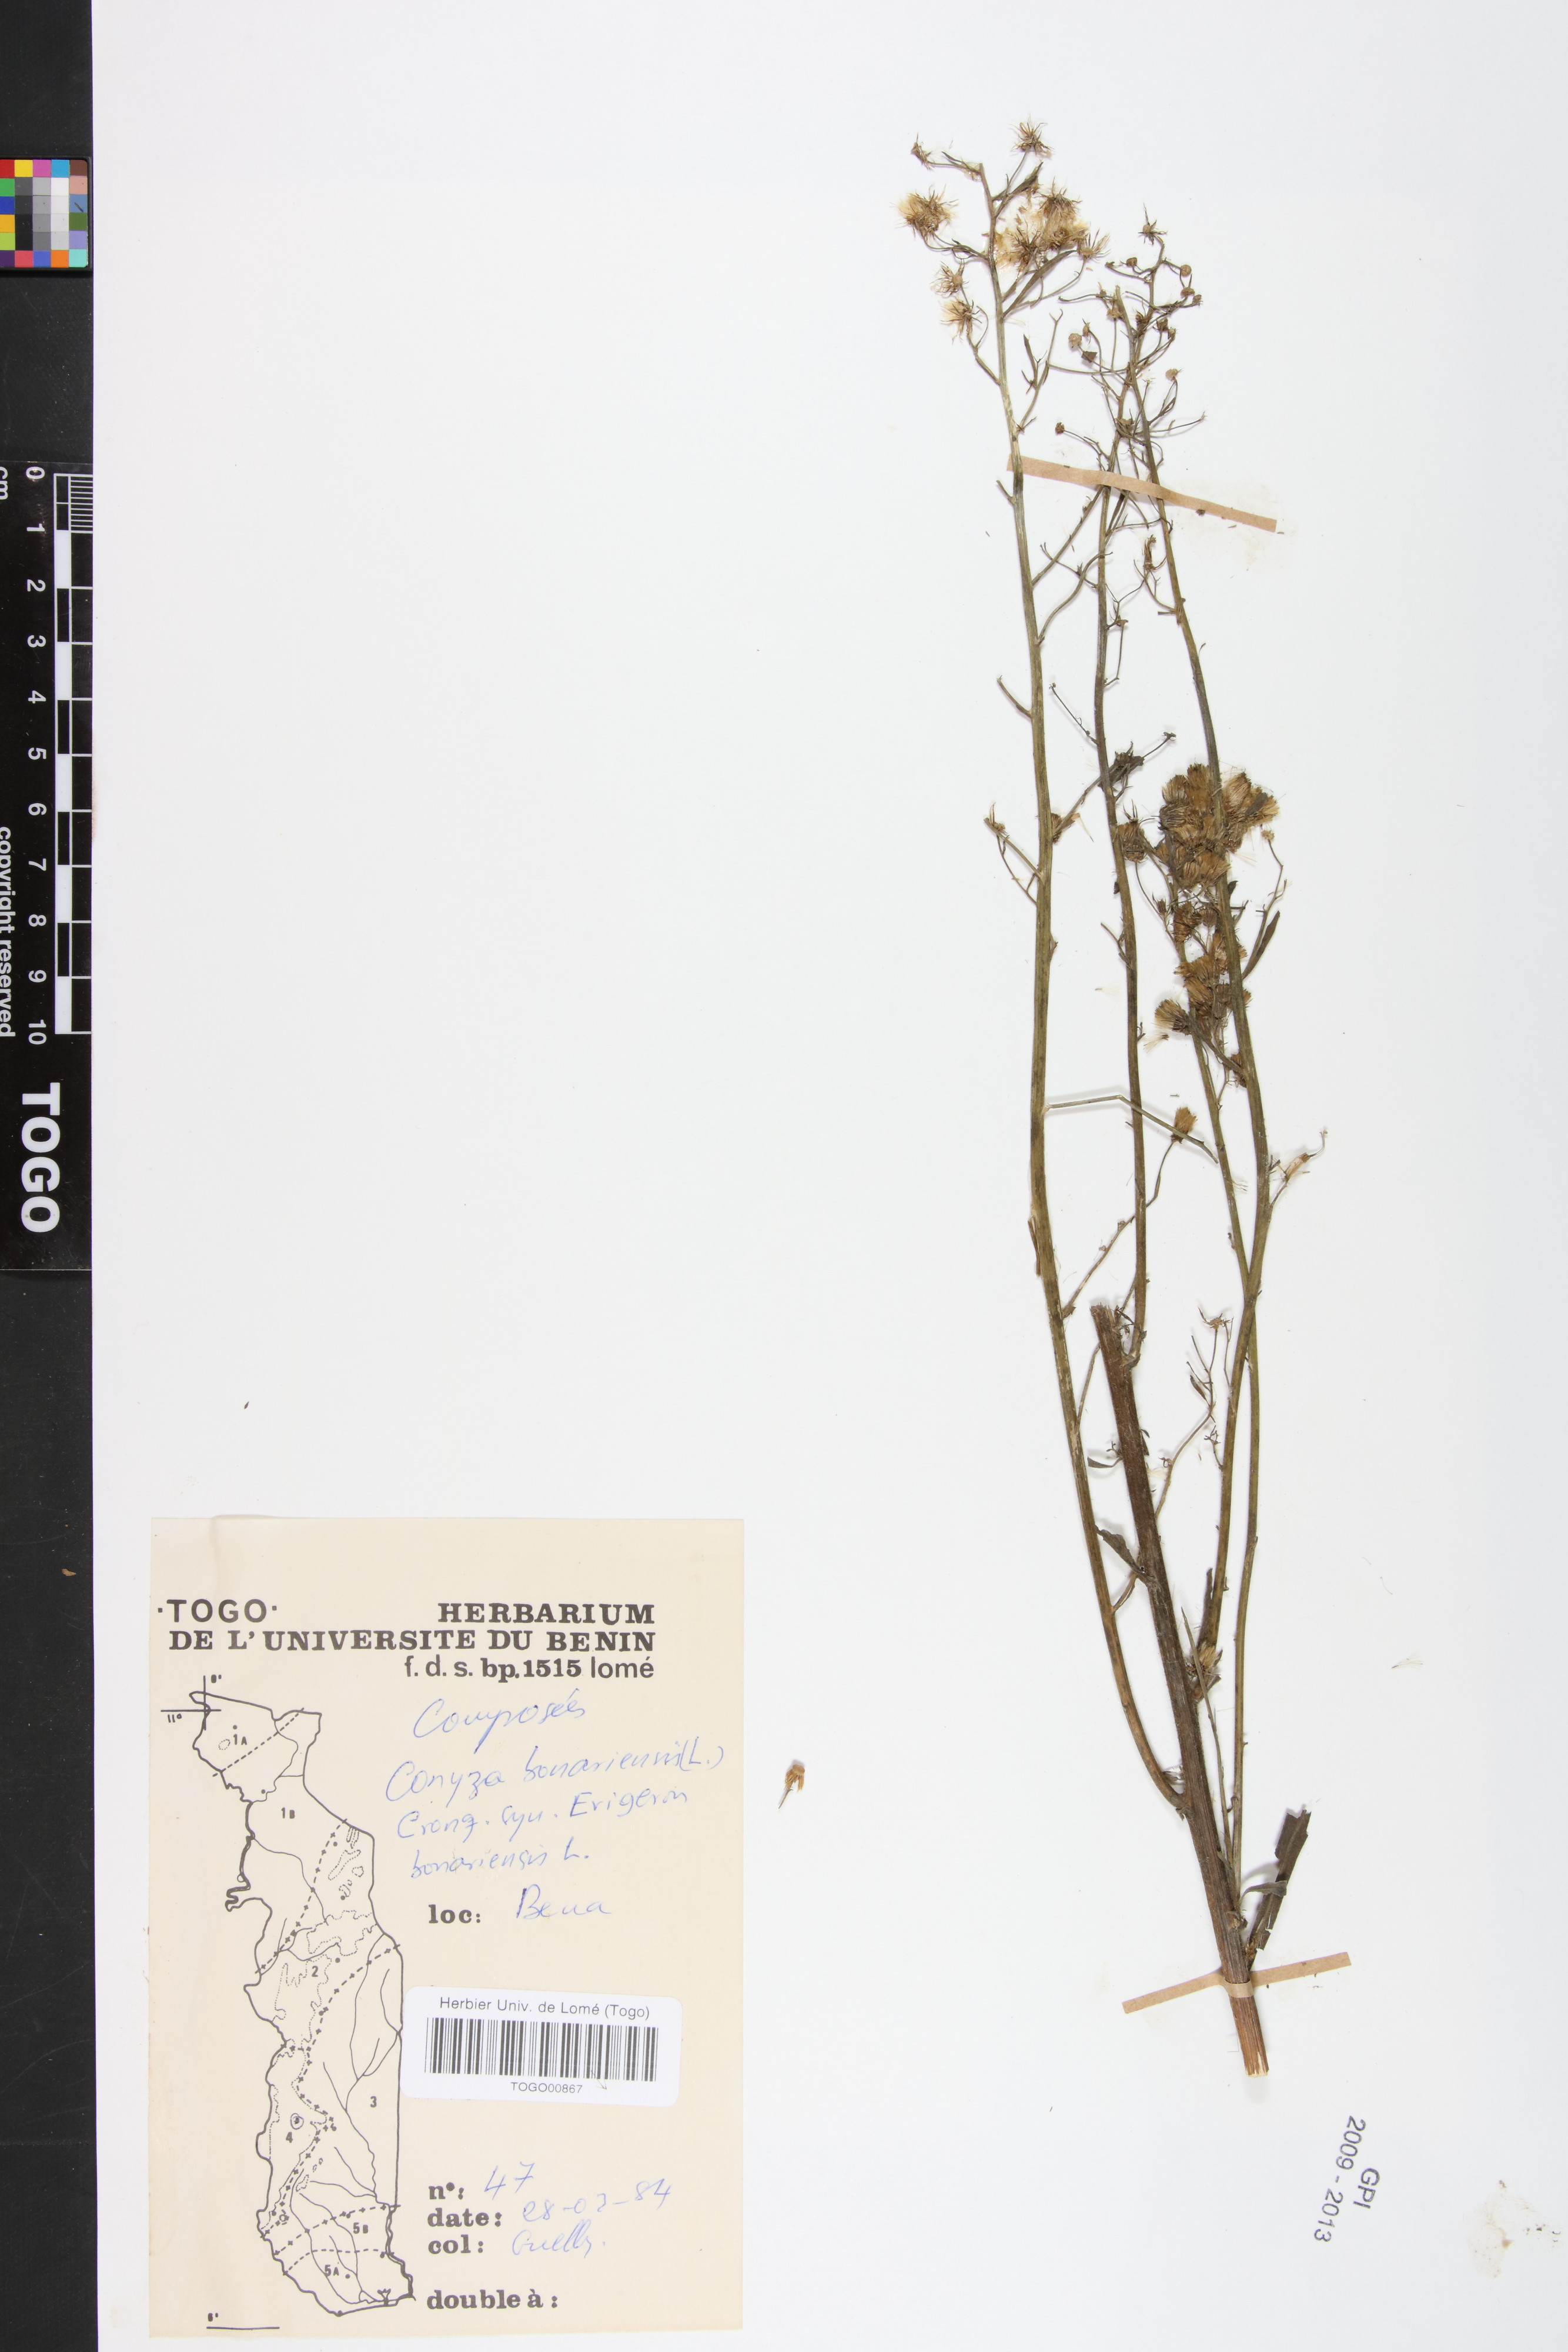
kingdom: Plantae
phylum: Tracheophyta
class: Magnoliopsida
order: Asterales
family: Asteraceae
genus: Erigeron
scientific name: Erigeron bonariensis
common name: Argentine fleabane
